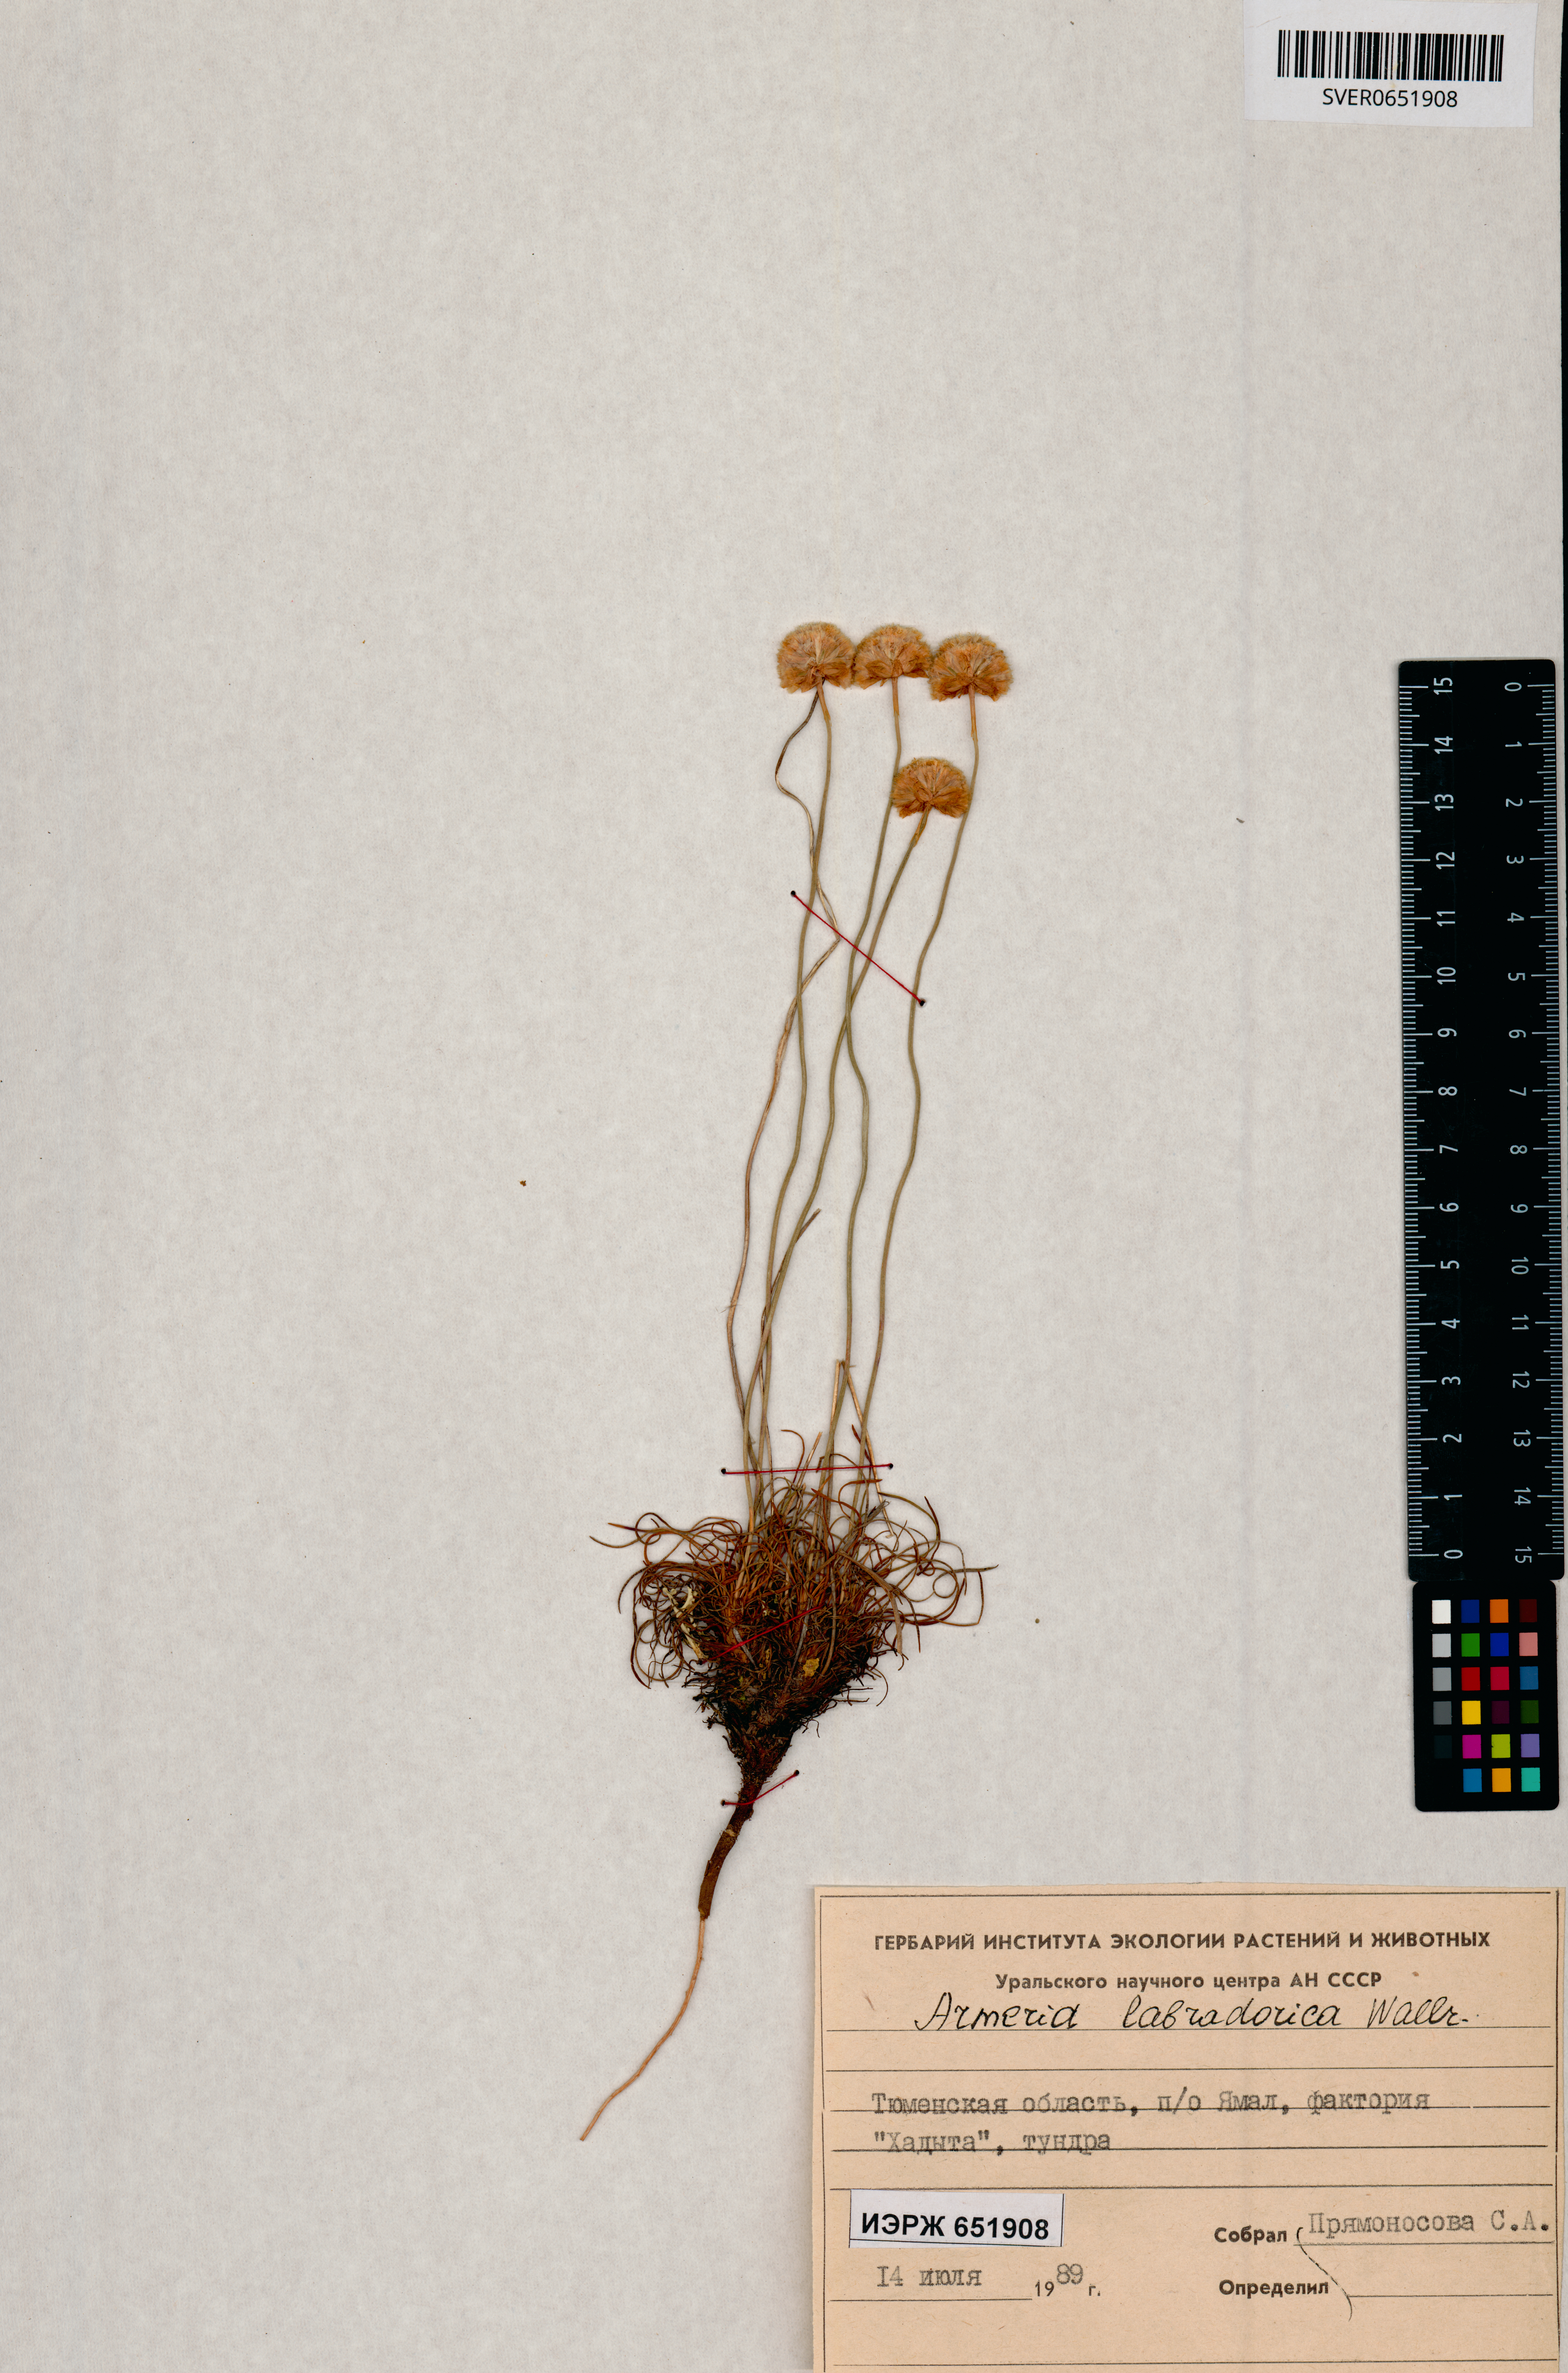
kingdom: Plantae
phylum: Tracheophyta
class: Magnoliopsida
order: Caryophyllales
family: Plumbaginaceae
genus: Armeria
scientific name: Armeria maritima
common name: Thrift
